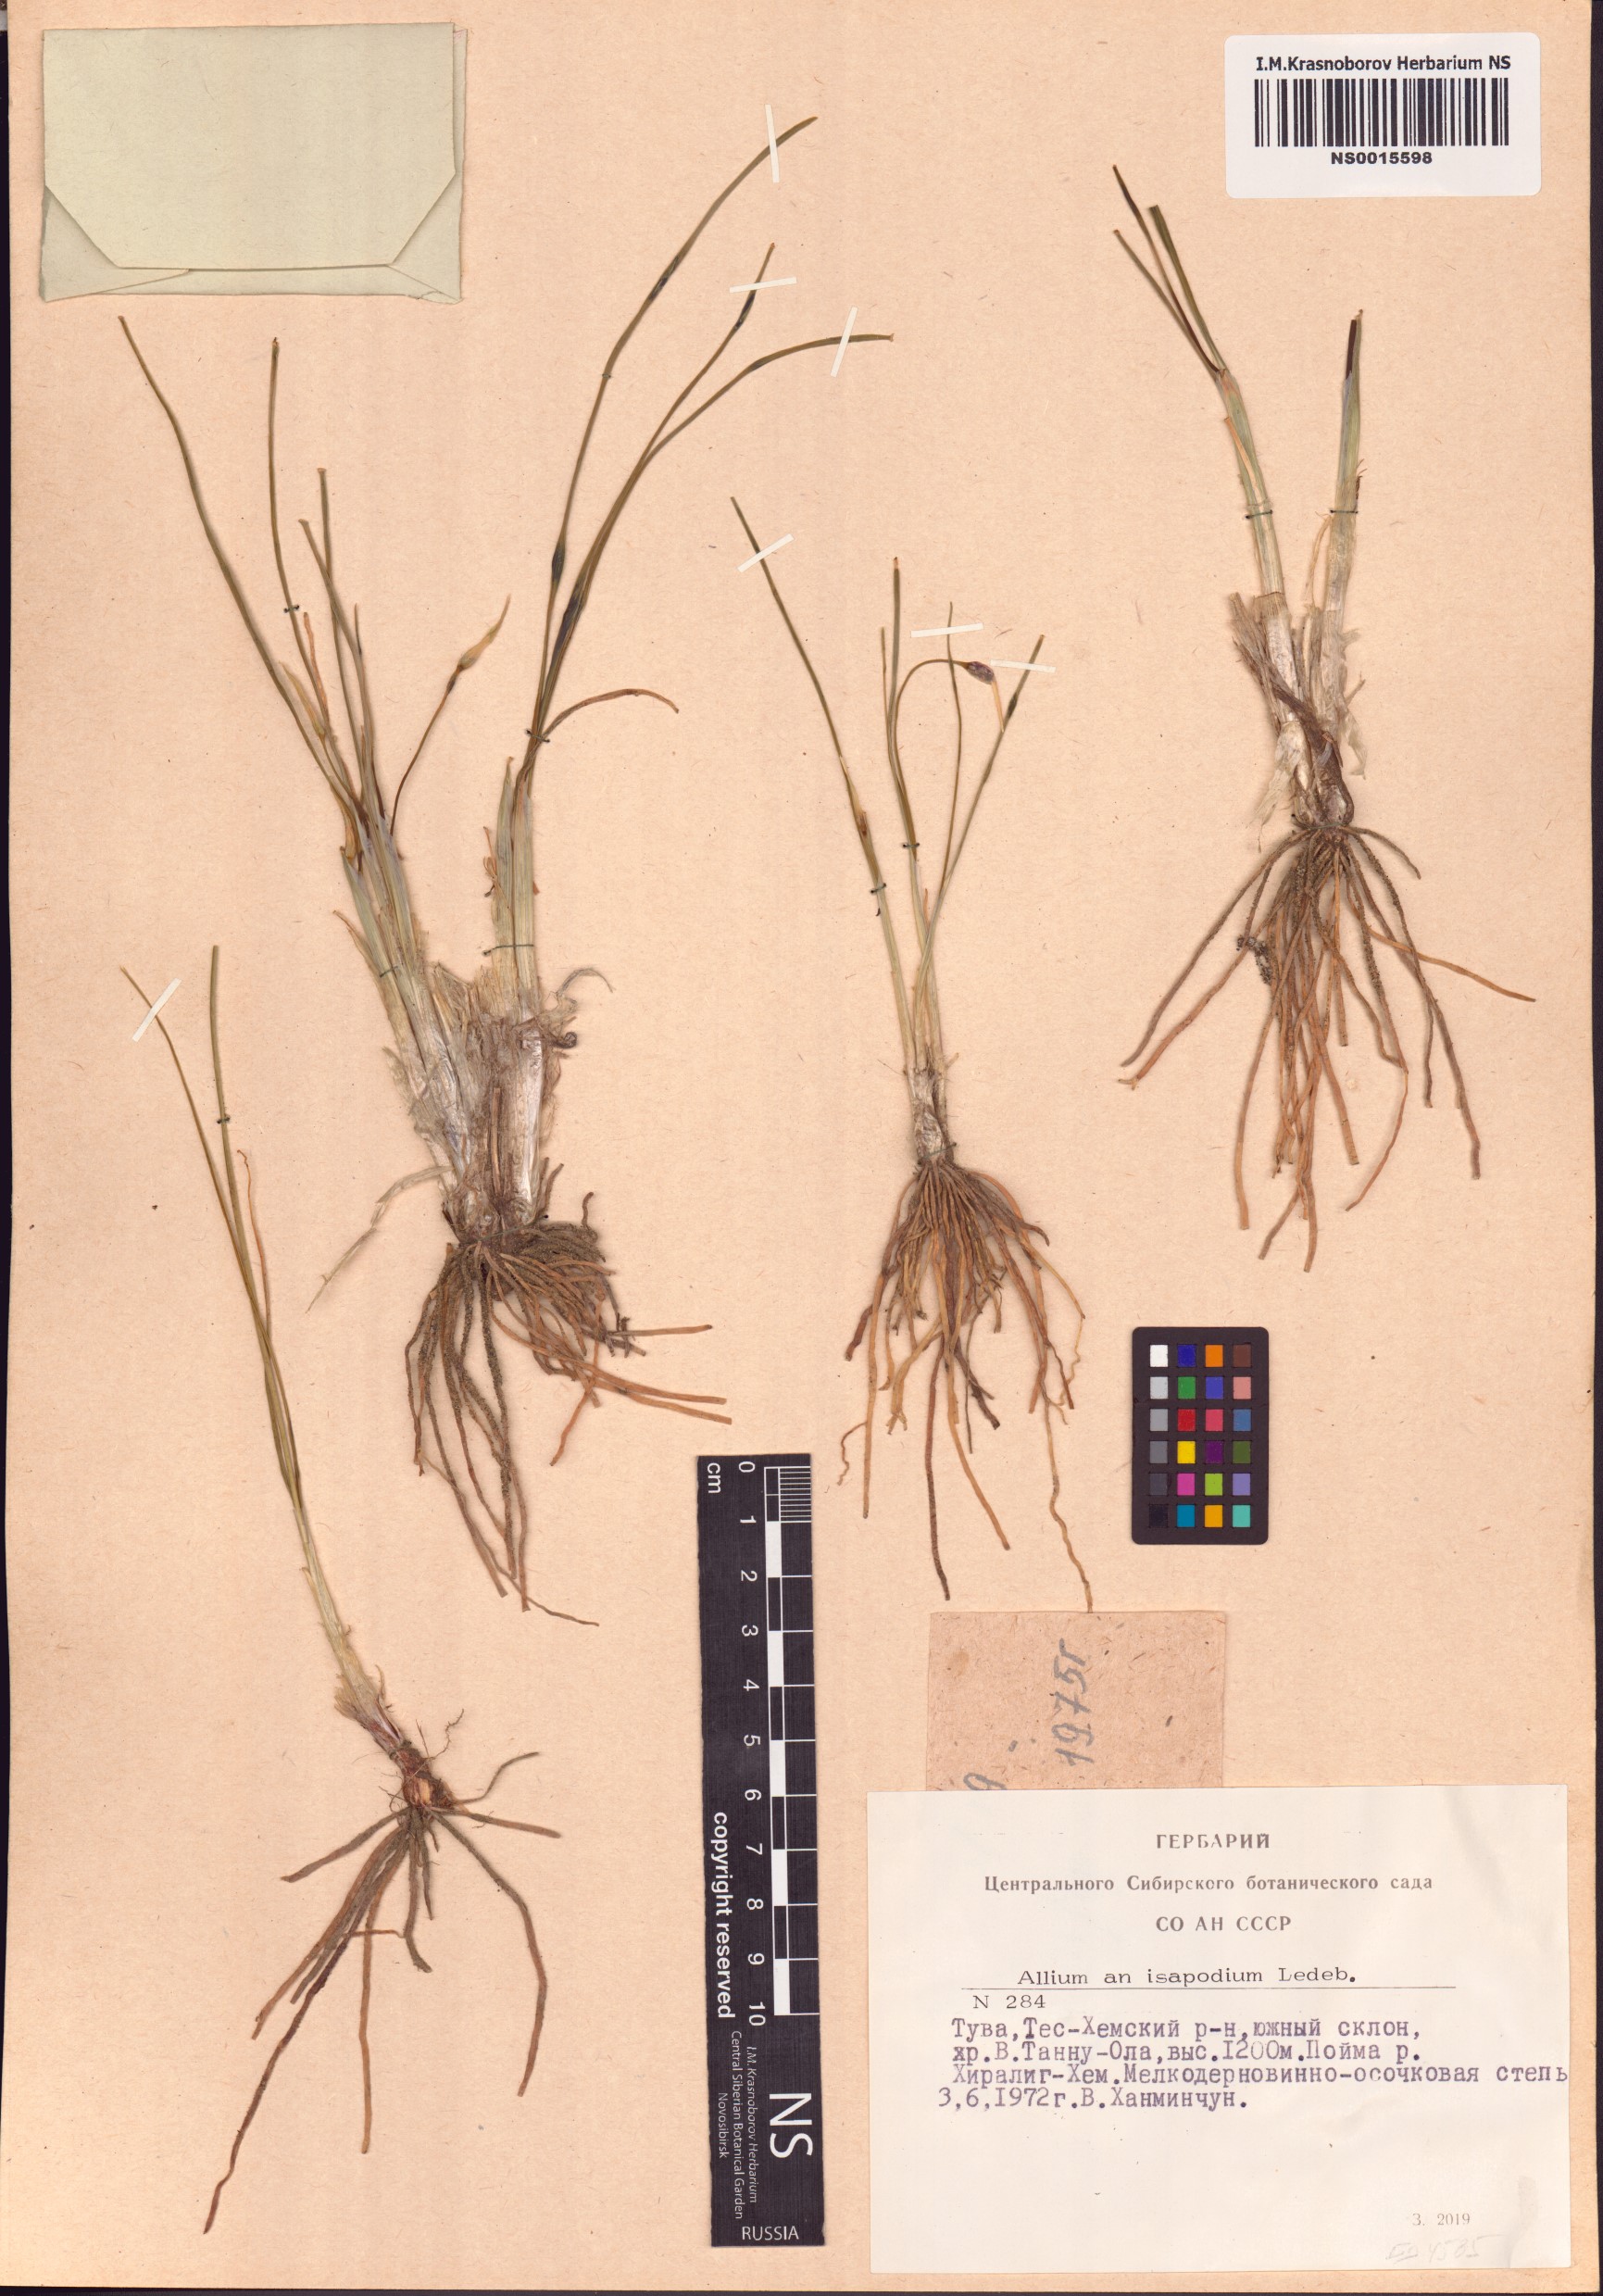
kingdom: Plantae
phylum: Tracheophyta
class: Liliopsida
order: Asparagales
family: Amaryllidaceae
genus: Allium
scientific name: Allium vodopjanovae
